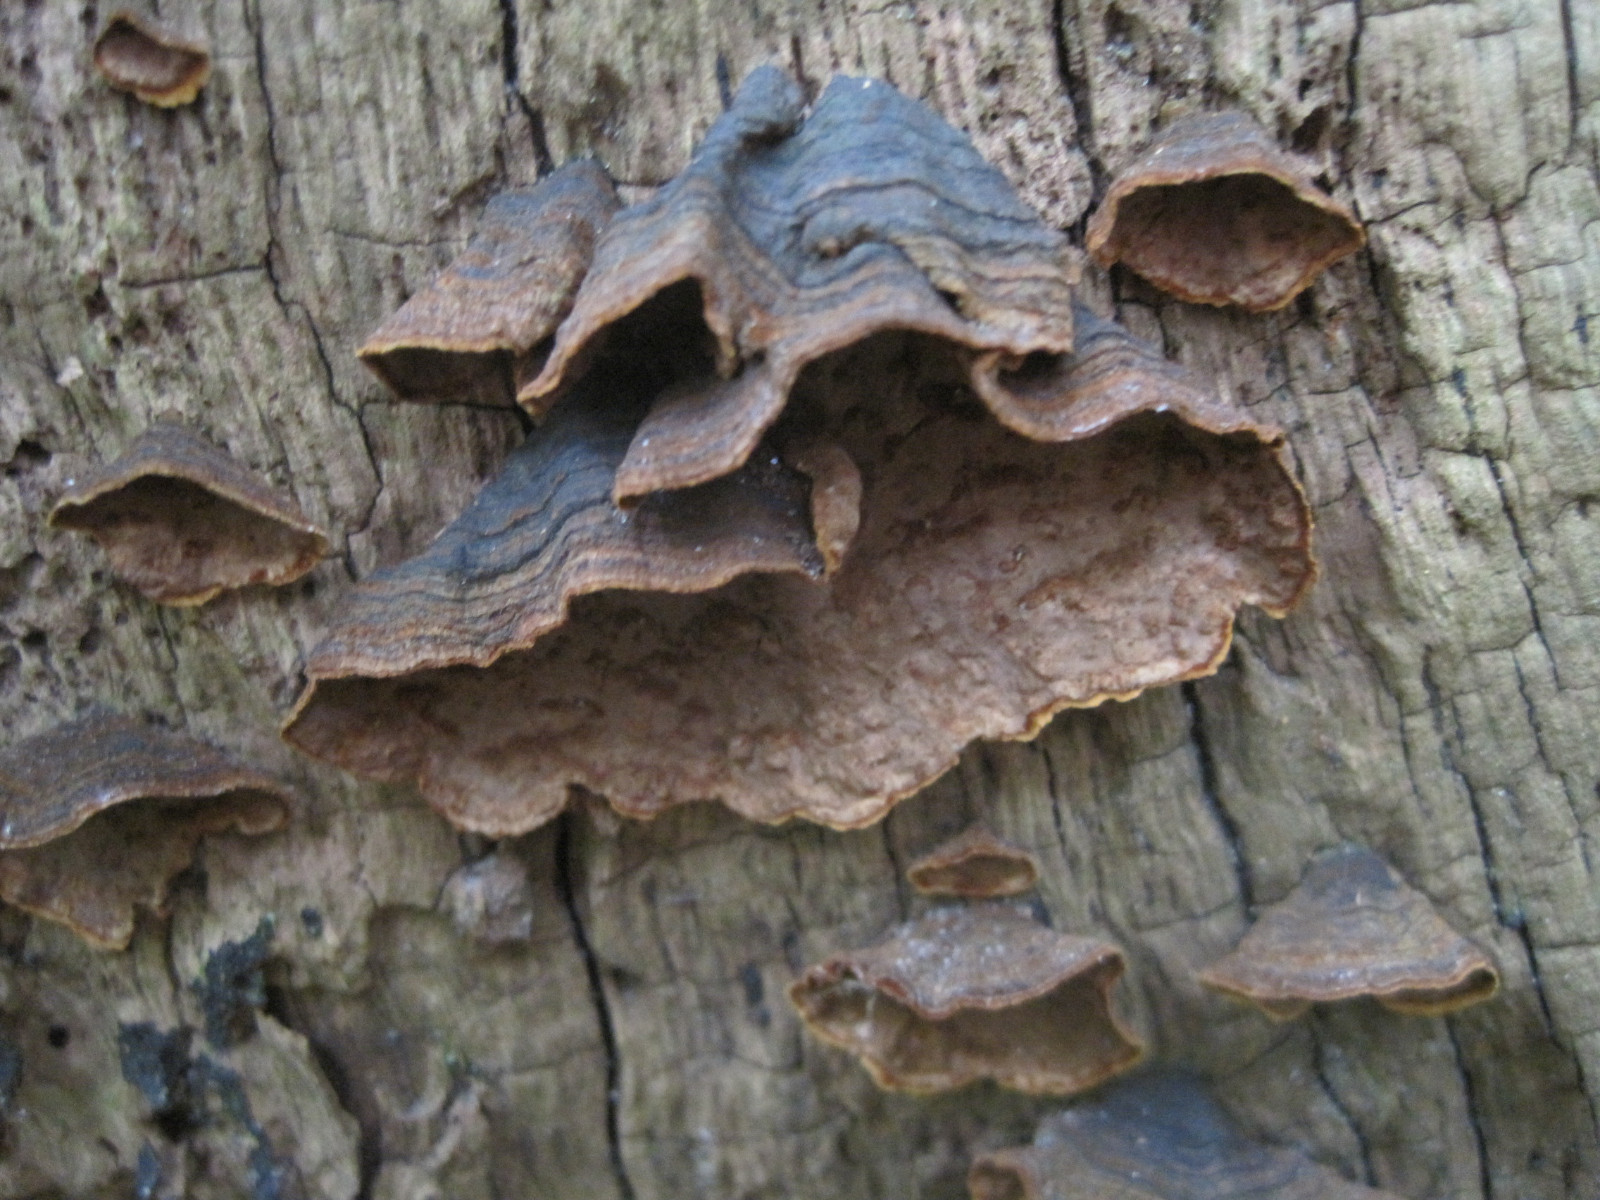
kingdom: Fungi
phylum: Basidiomycota
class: Agaricomycetes
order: Hymenochaetales
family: Hymenochaetaceae
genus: Hymenochaete
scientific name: Hymenochaete rubiginosa
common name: stiv ruslædersvamp
